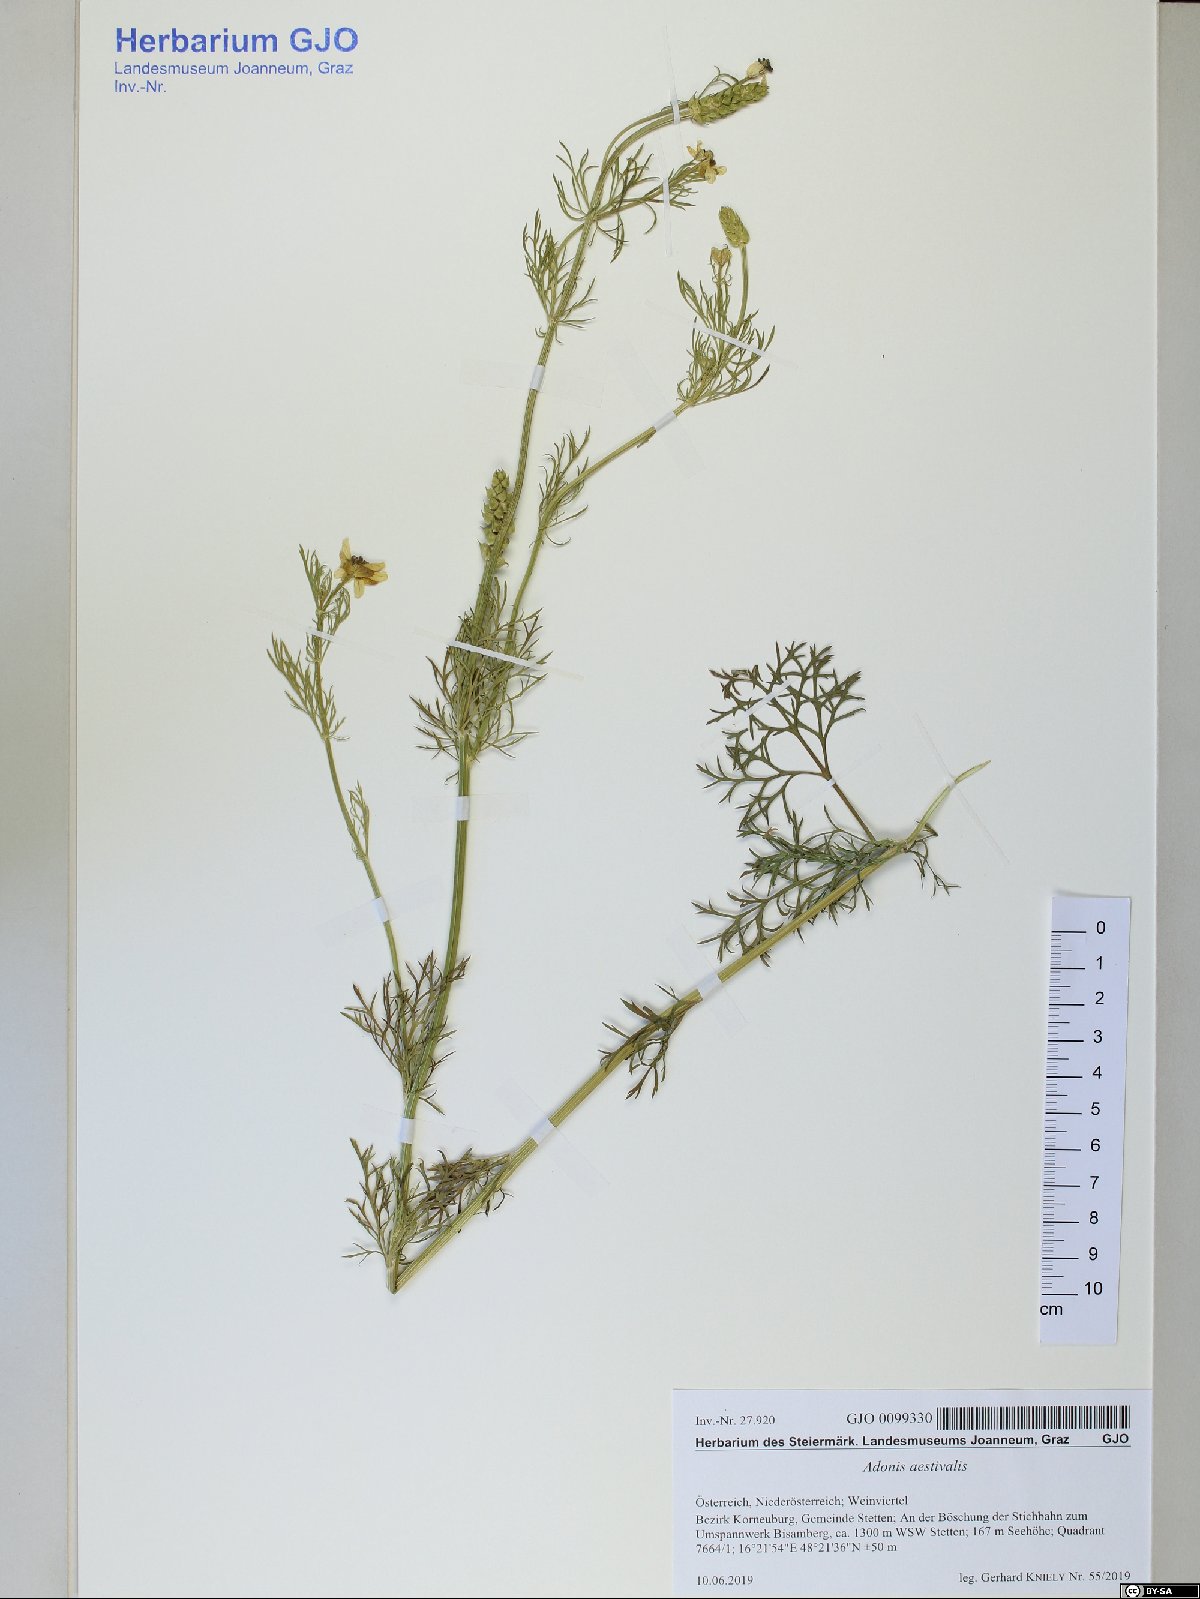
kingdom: Plantae
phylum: Tracheophyta
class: Magnoliopsida
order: Ranunculales
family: Ranunculaceae
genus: Adonis
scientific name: Adonis aestivalis
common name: Summer pheasant's-eye
